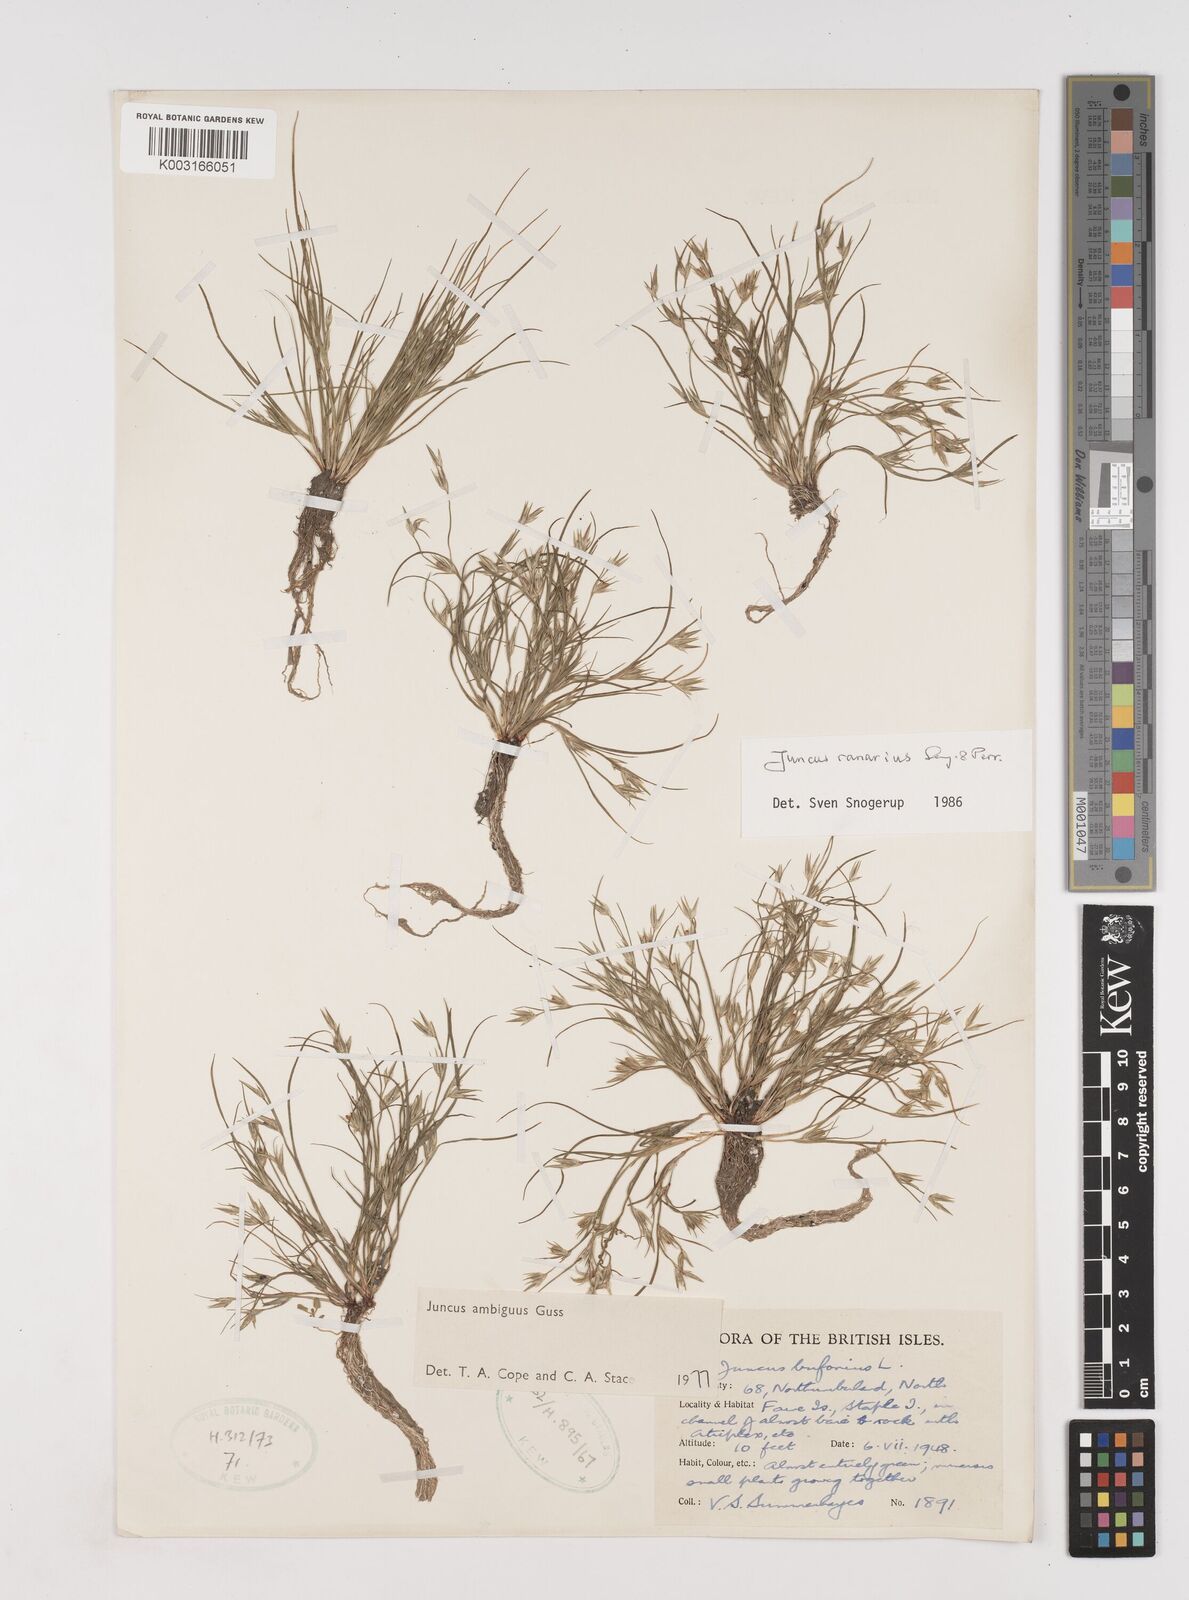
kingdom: Plantae
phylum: Tracheophyta
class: Liliopsida
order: Poales
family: Juncaceae
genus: Juncus
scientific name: Juncus hybridus
